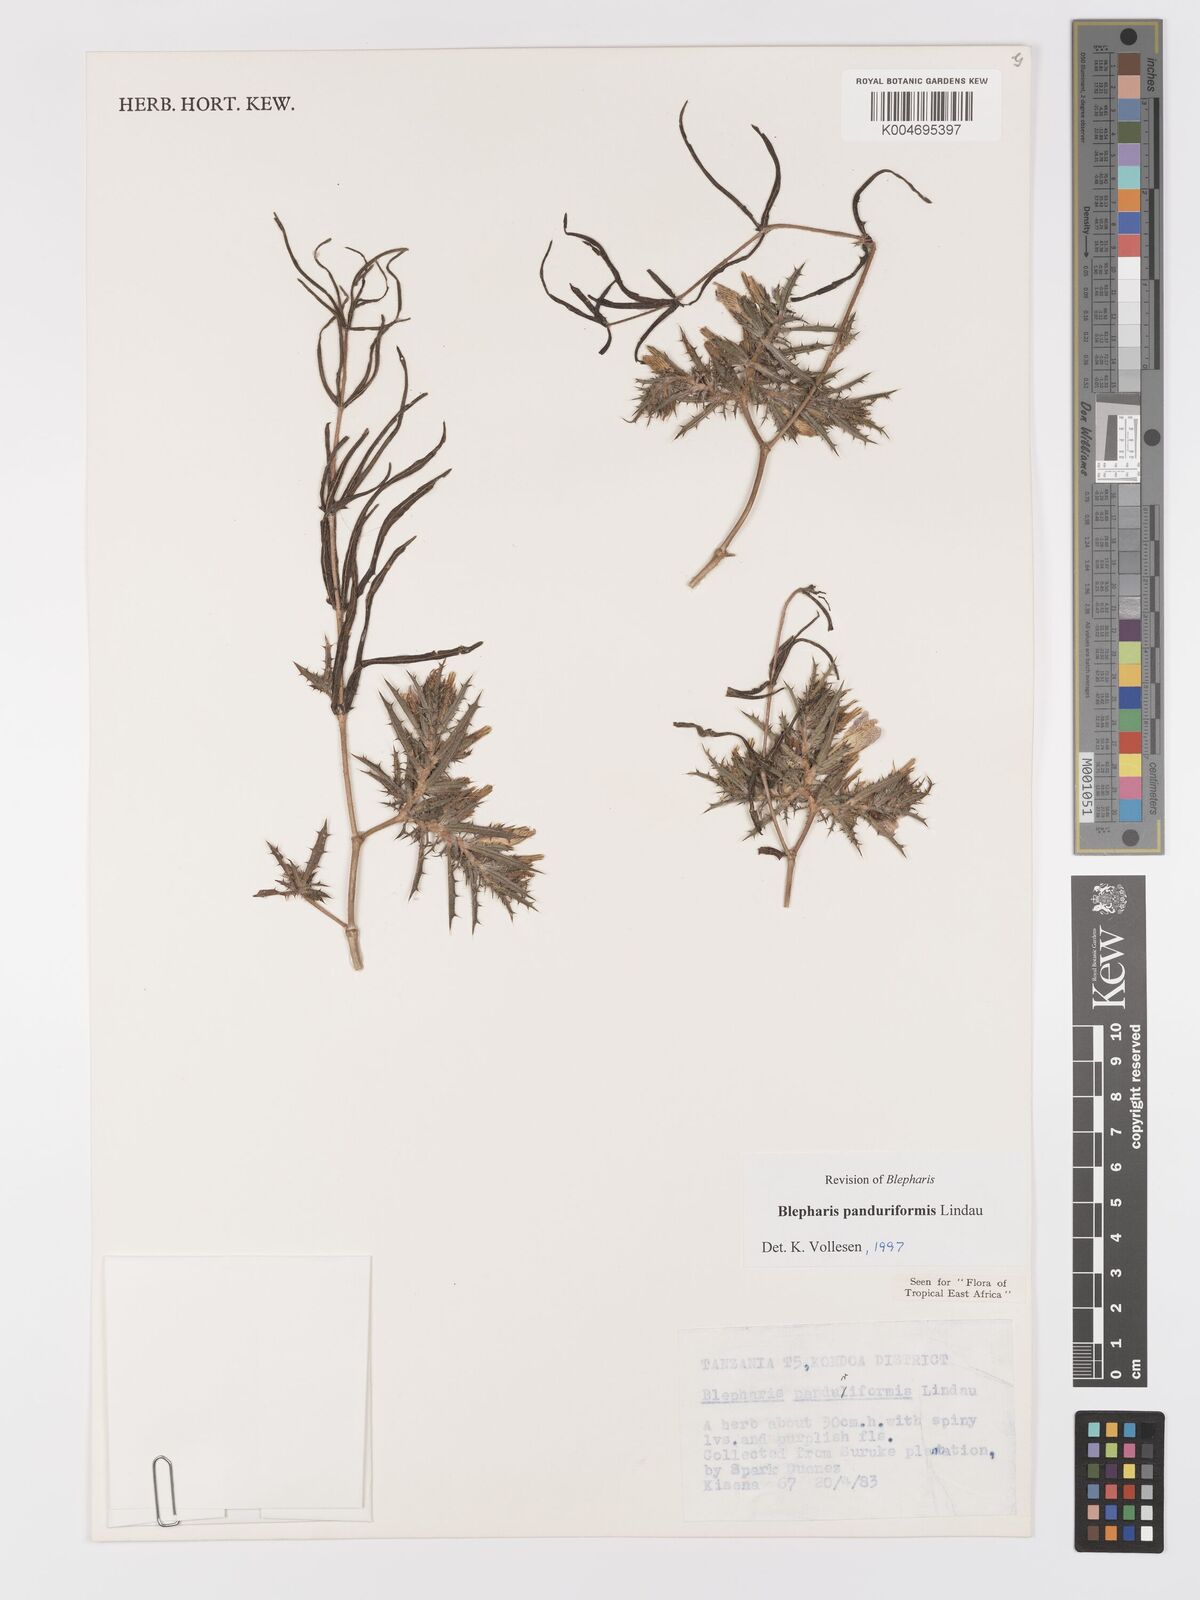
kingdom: Plantae
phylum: Tracheophyta
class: Magnoliopsida
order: Lamiales
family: Acanthaceae
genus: Blepharis
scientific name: Blepharis panduriformis
